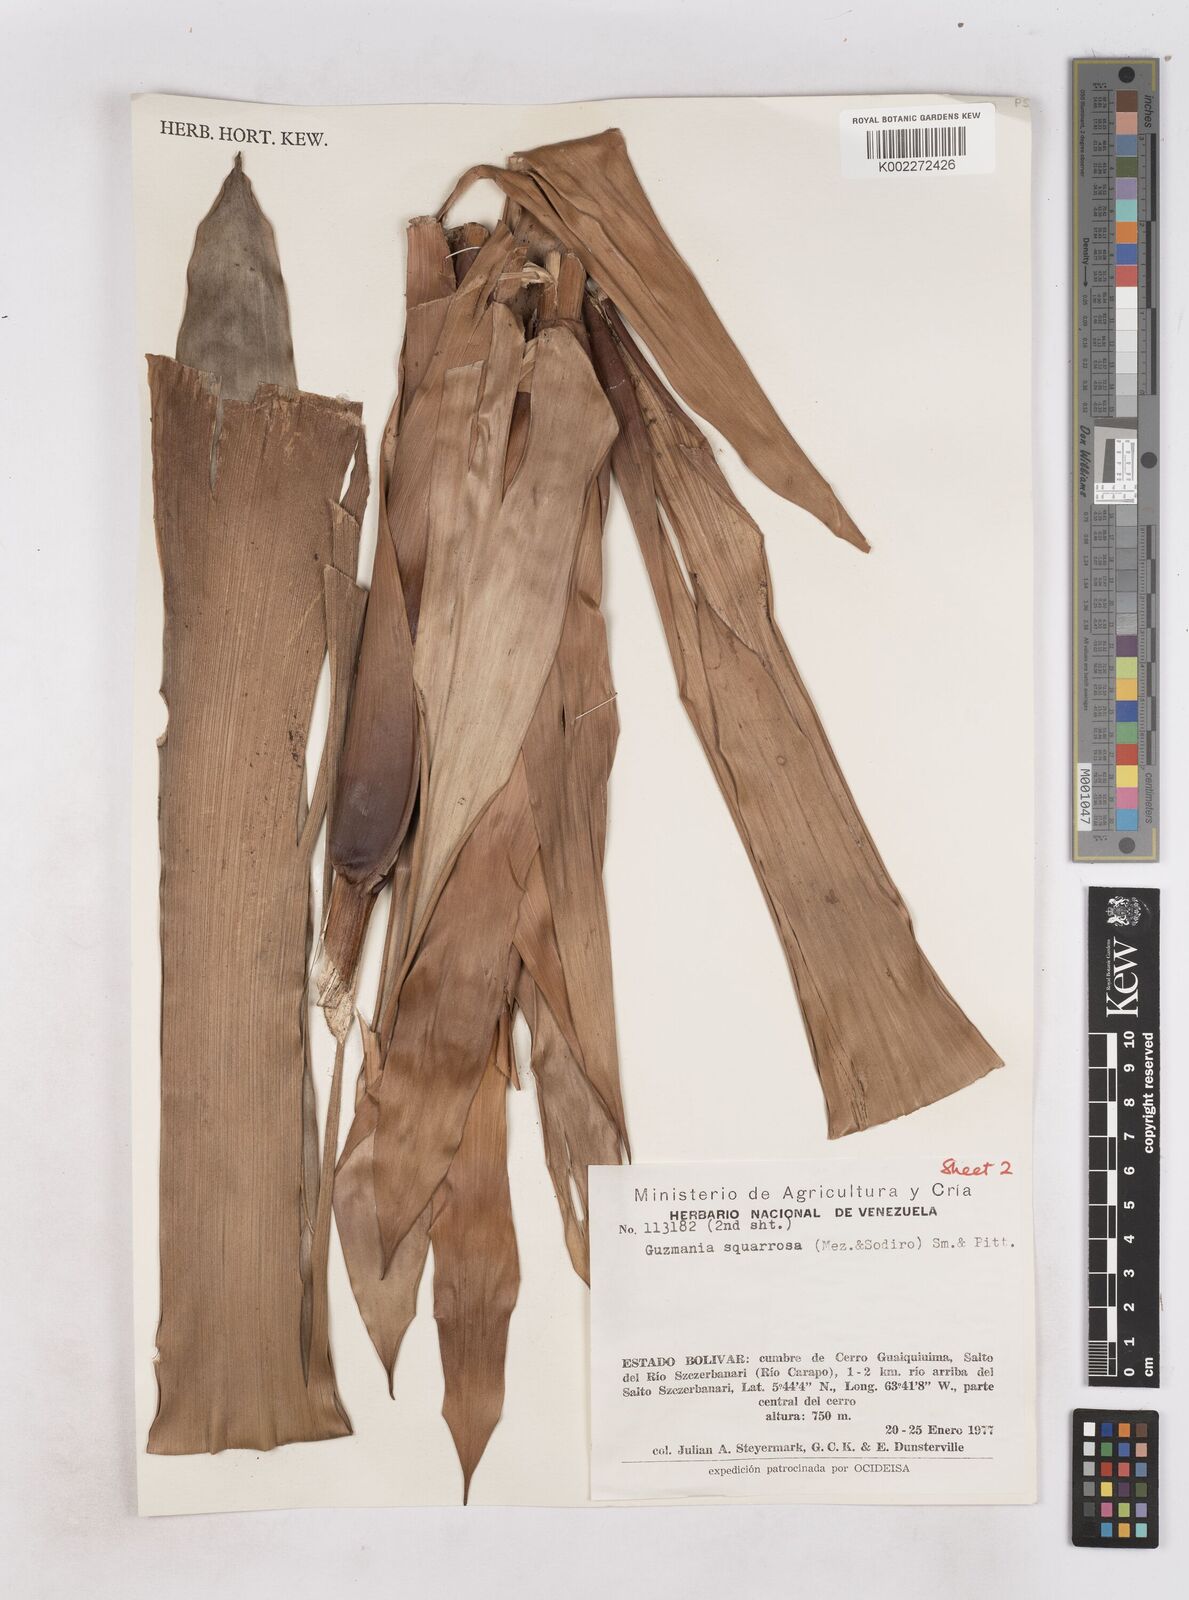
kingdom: Plantae
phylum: Tracheophyta
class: Liliopsida
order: Poales
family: Bromeliaceae
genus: Guzmania
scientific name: Guzmania squarrosa
